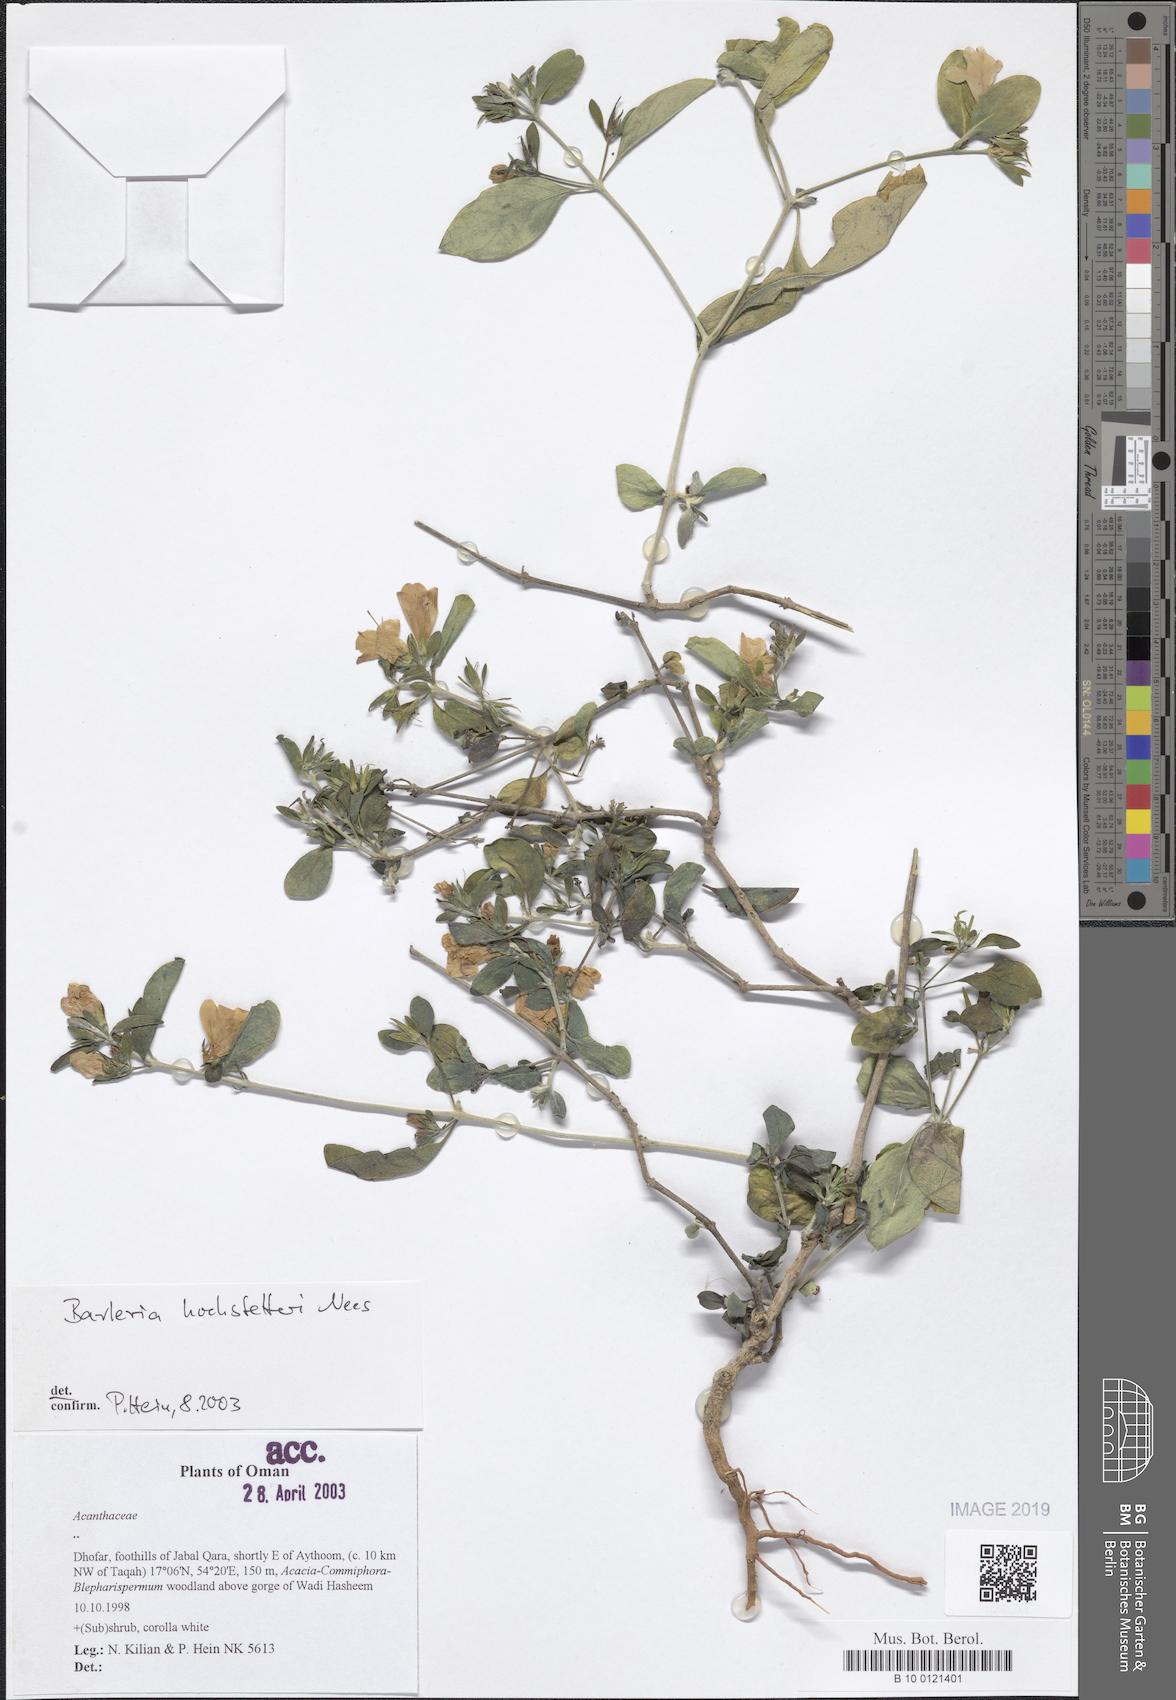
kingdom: Plantae
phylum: Tracheophyta
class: Magnoliopsida
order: Lamiales
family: Acanthaceae
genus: Barleria
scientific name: Barleria hochstetteri
